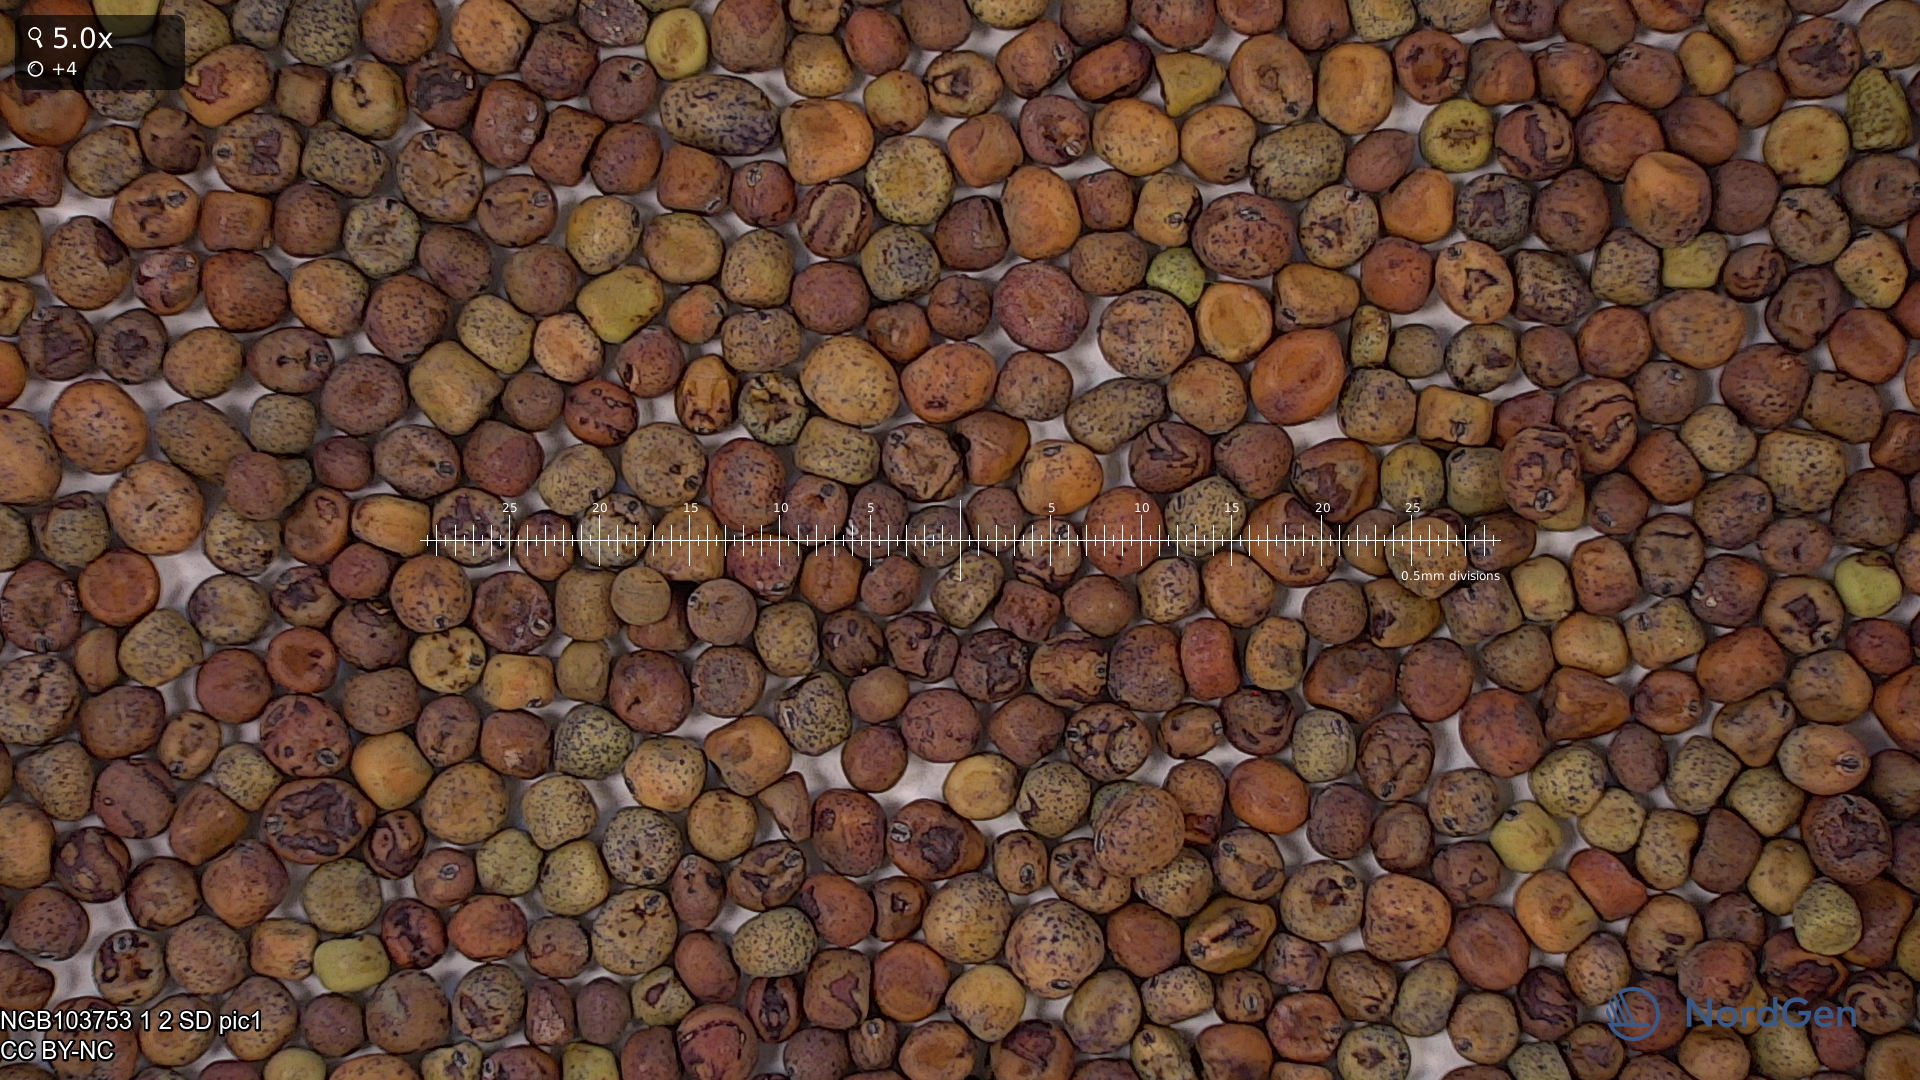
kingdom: Plantae
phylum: Tracheophyta
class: Magnoliopsida
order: Fabales
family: Fabaceae
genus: Lathyrus
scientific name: Lathyrus oleraceus
